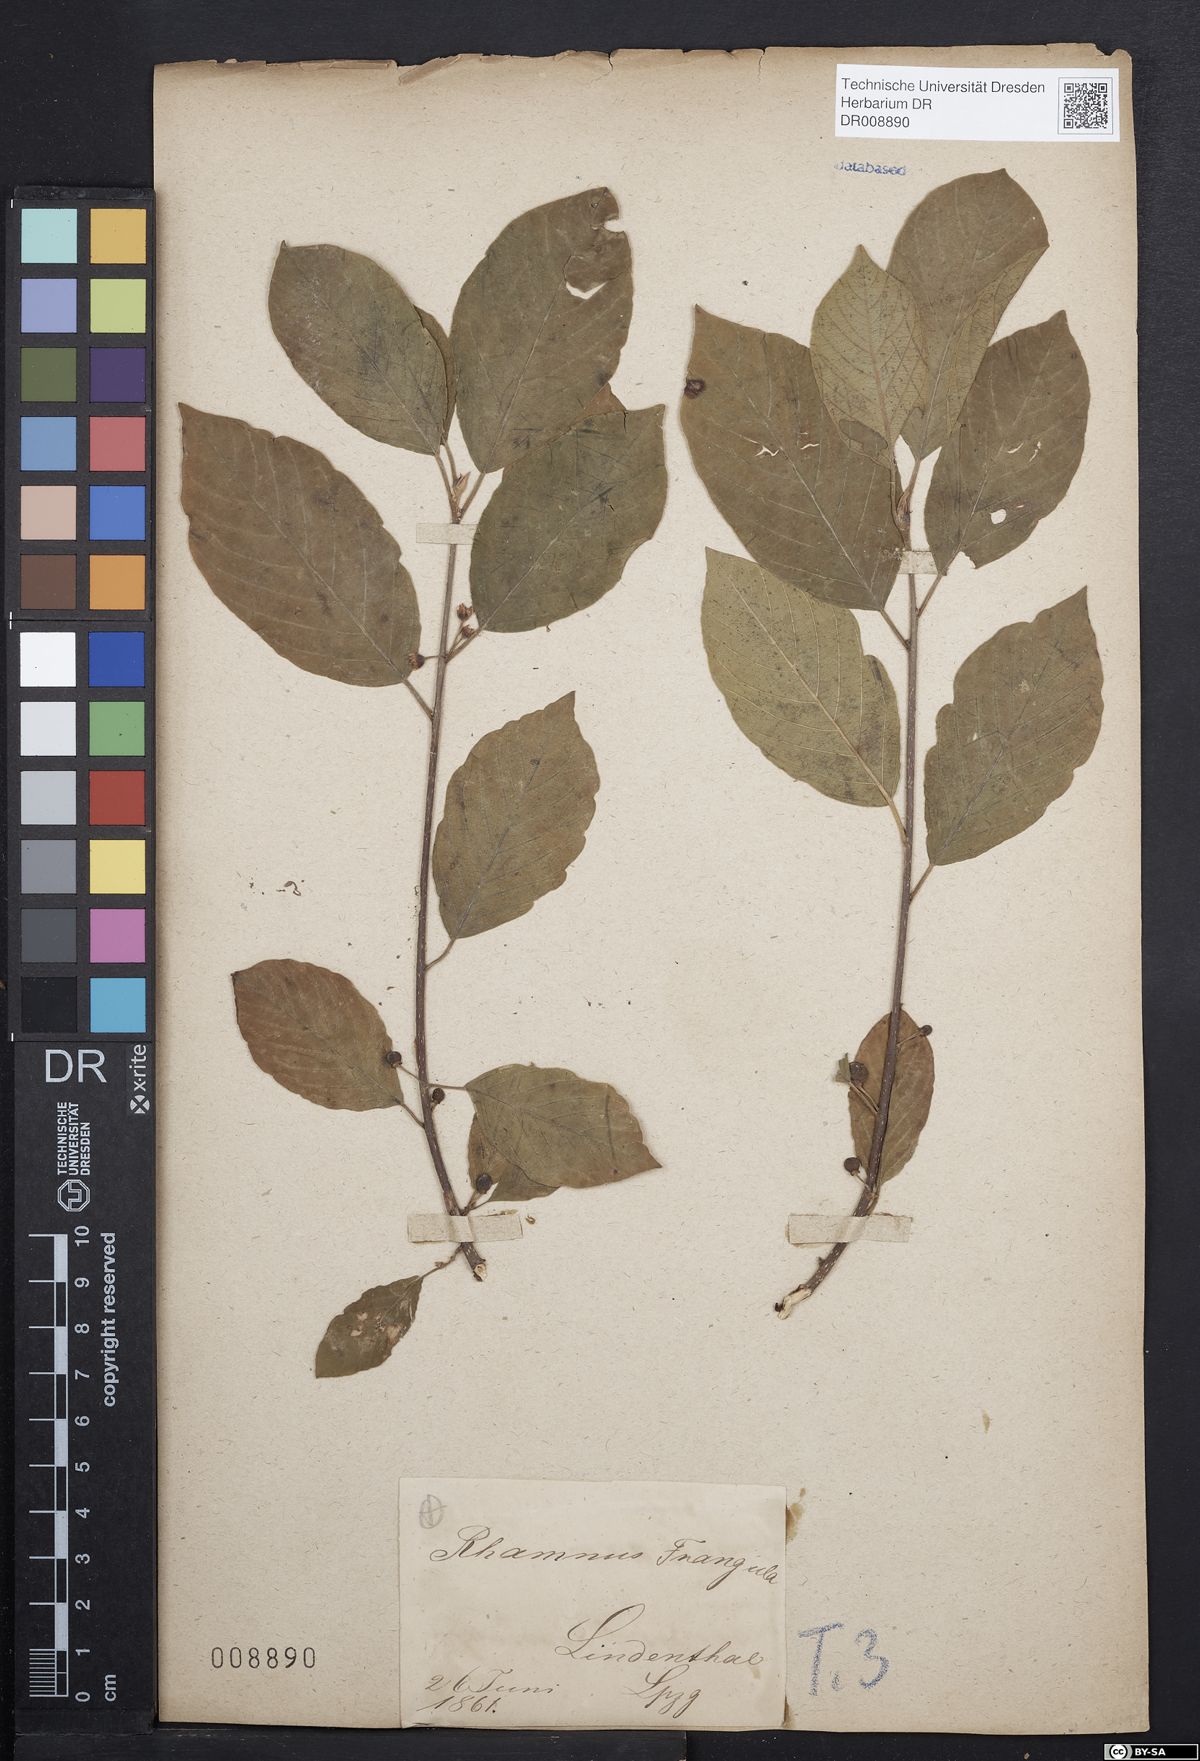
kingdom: Plantae
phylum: Tracheophyta
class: Magnoliopsida
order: Rosales
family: Rhamnaceae
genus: Frangula
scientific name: Frangula alnus
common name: Alder buckthorn
